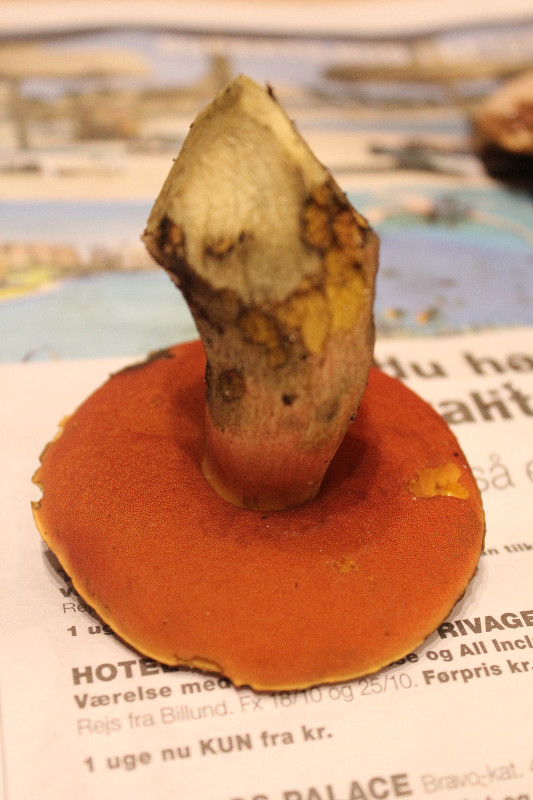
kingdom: Fungi
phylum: Basidiomycota
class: Agaricomycetes
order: Boletales
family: Boletaceae
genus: Neoboletus
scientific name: Neoboletus erythropus
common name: punktstokket indigorørhat
